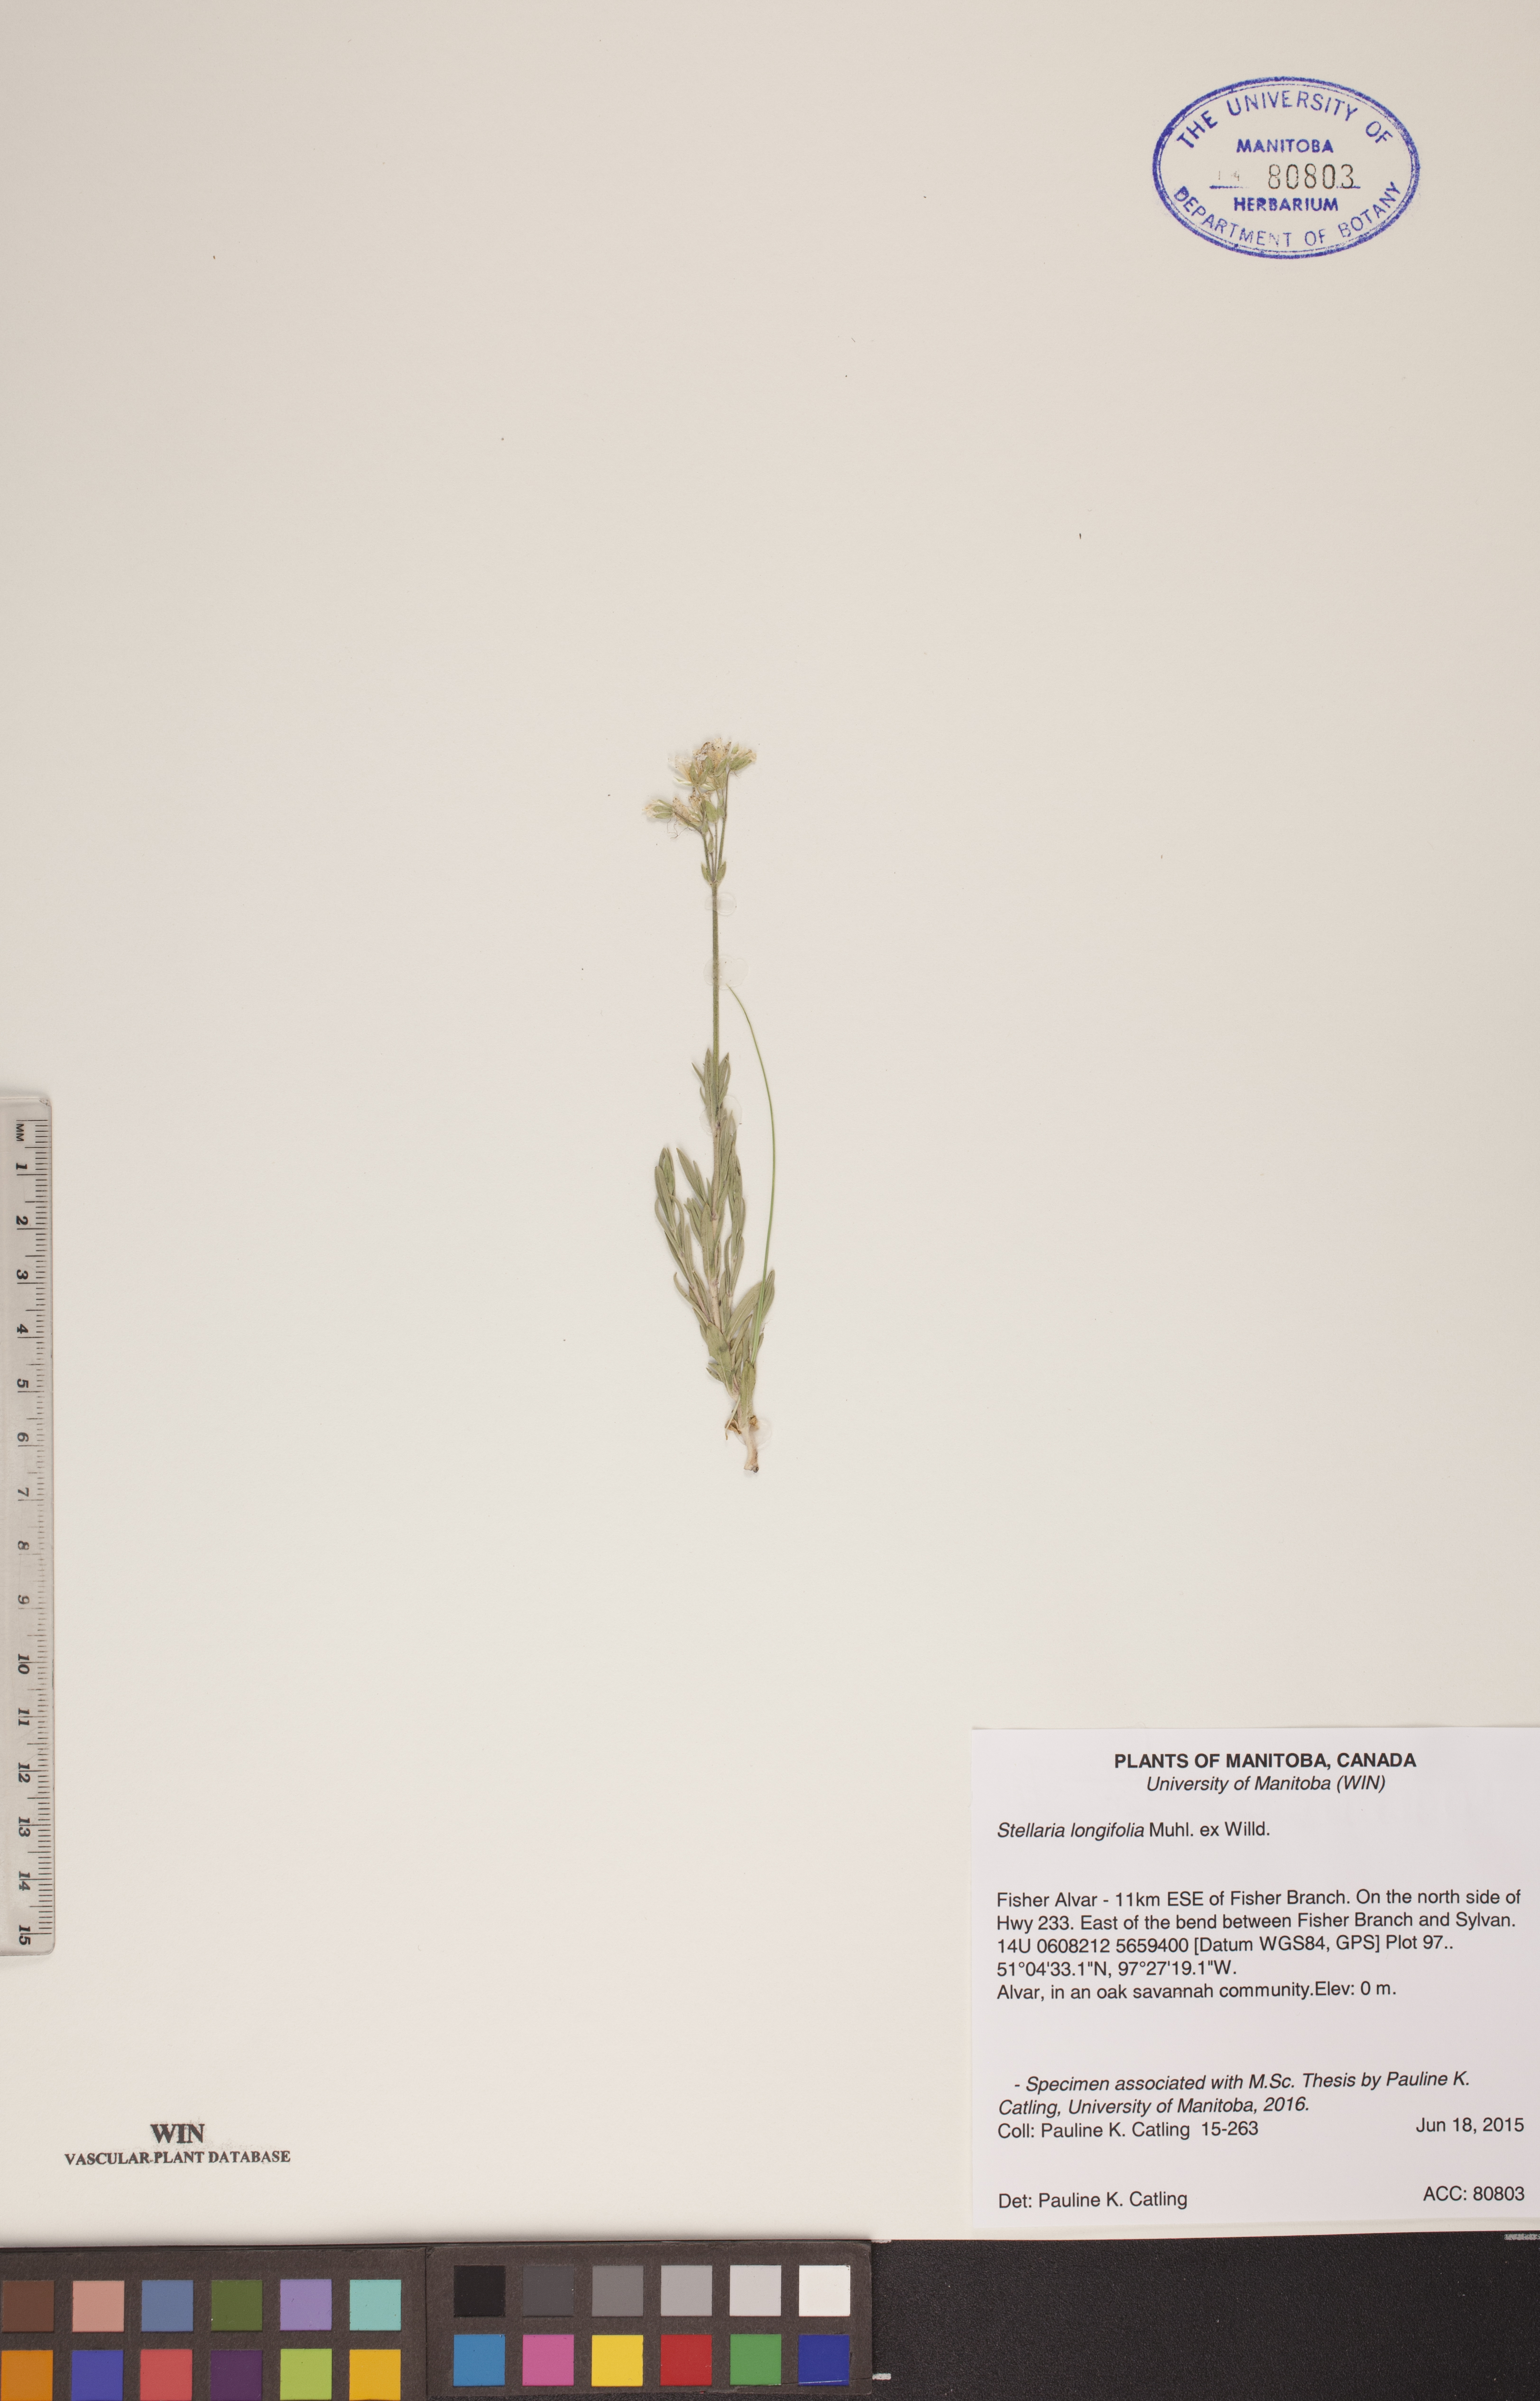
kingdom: Plantae
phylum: Tracheophyta
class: Magnoliopsida
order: Caryophyllales
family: Caryophyllaceae
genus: Stellaria
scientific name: Stellaria longifolia
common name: Long-leaved chickweed
